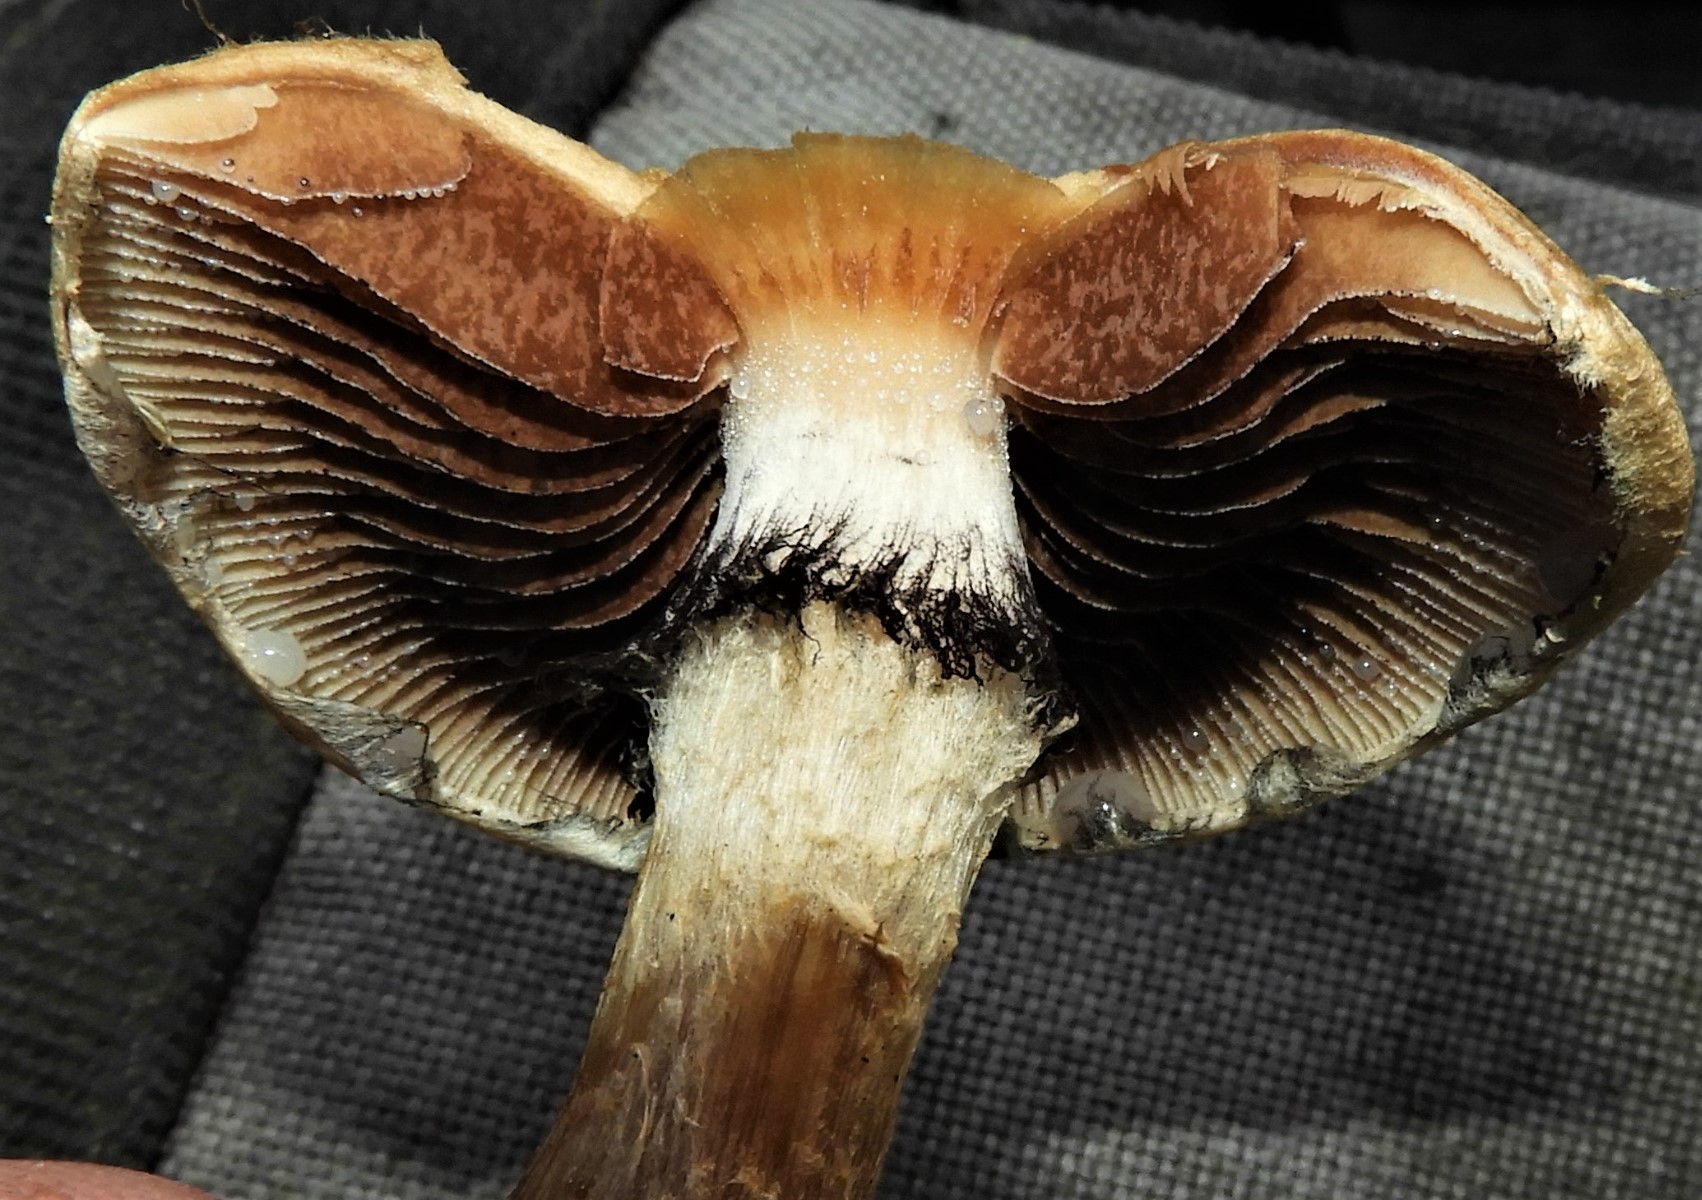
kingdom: Fungi
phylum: Basidiomycota
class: Agaricomycetes
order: Agaricales
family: Psathyrellaceae
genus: Lacrymaria
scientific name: Lacrymaria lacrymabunda
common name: grædende mørkhat
